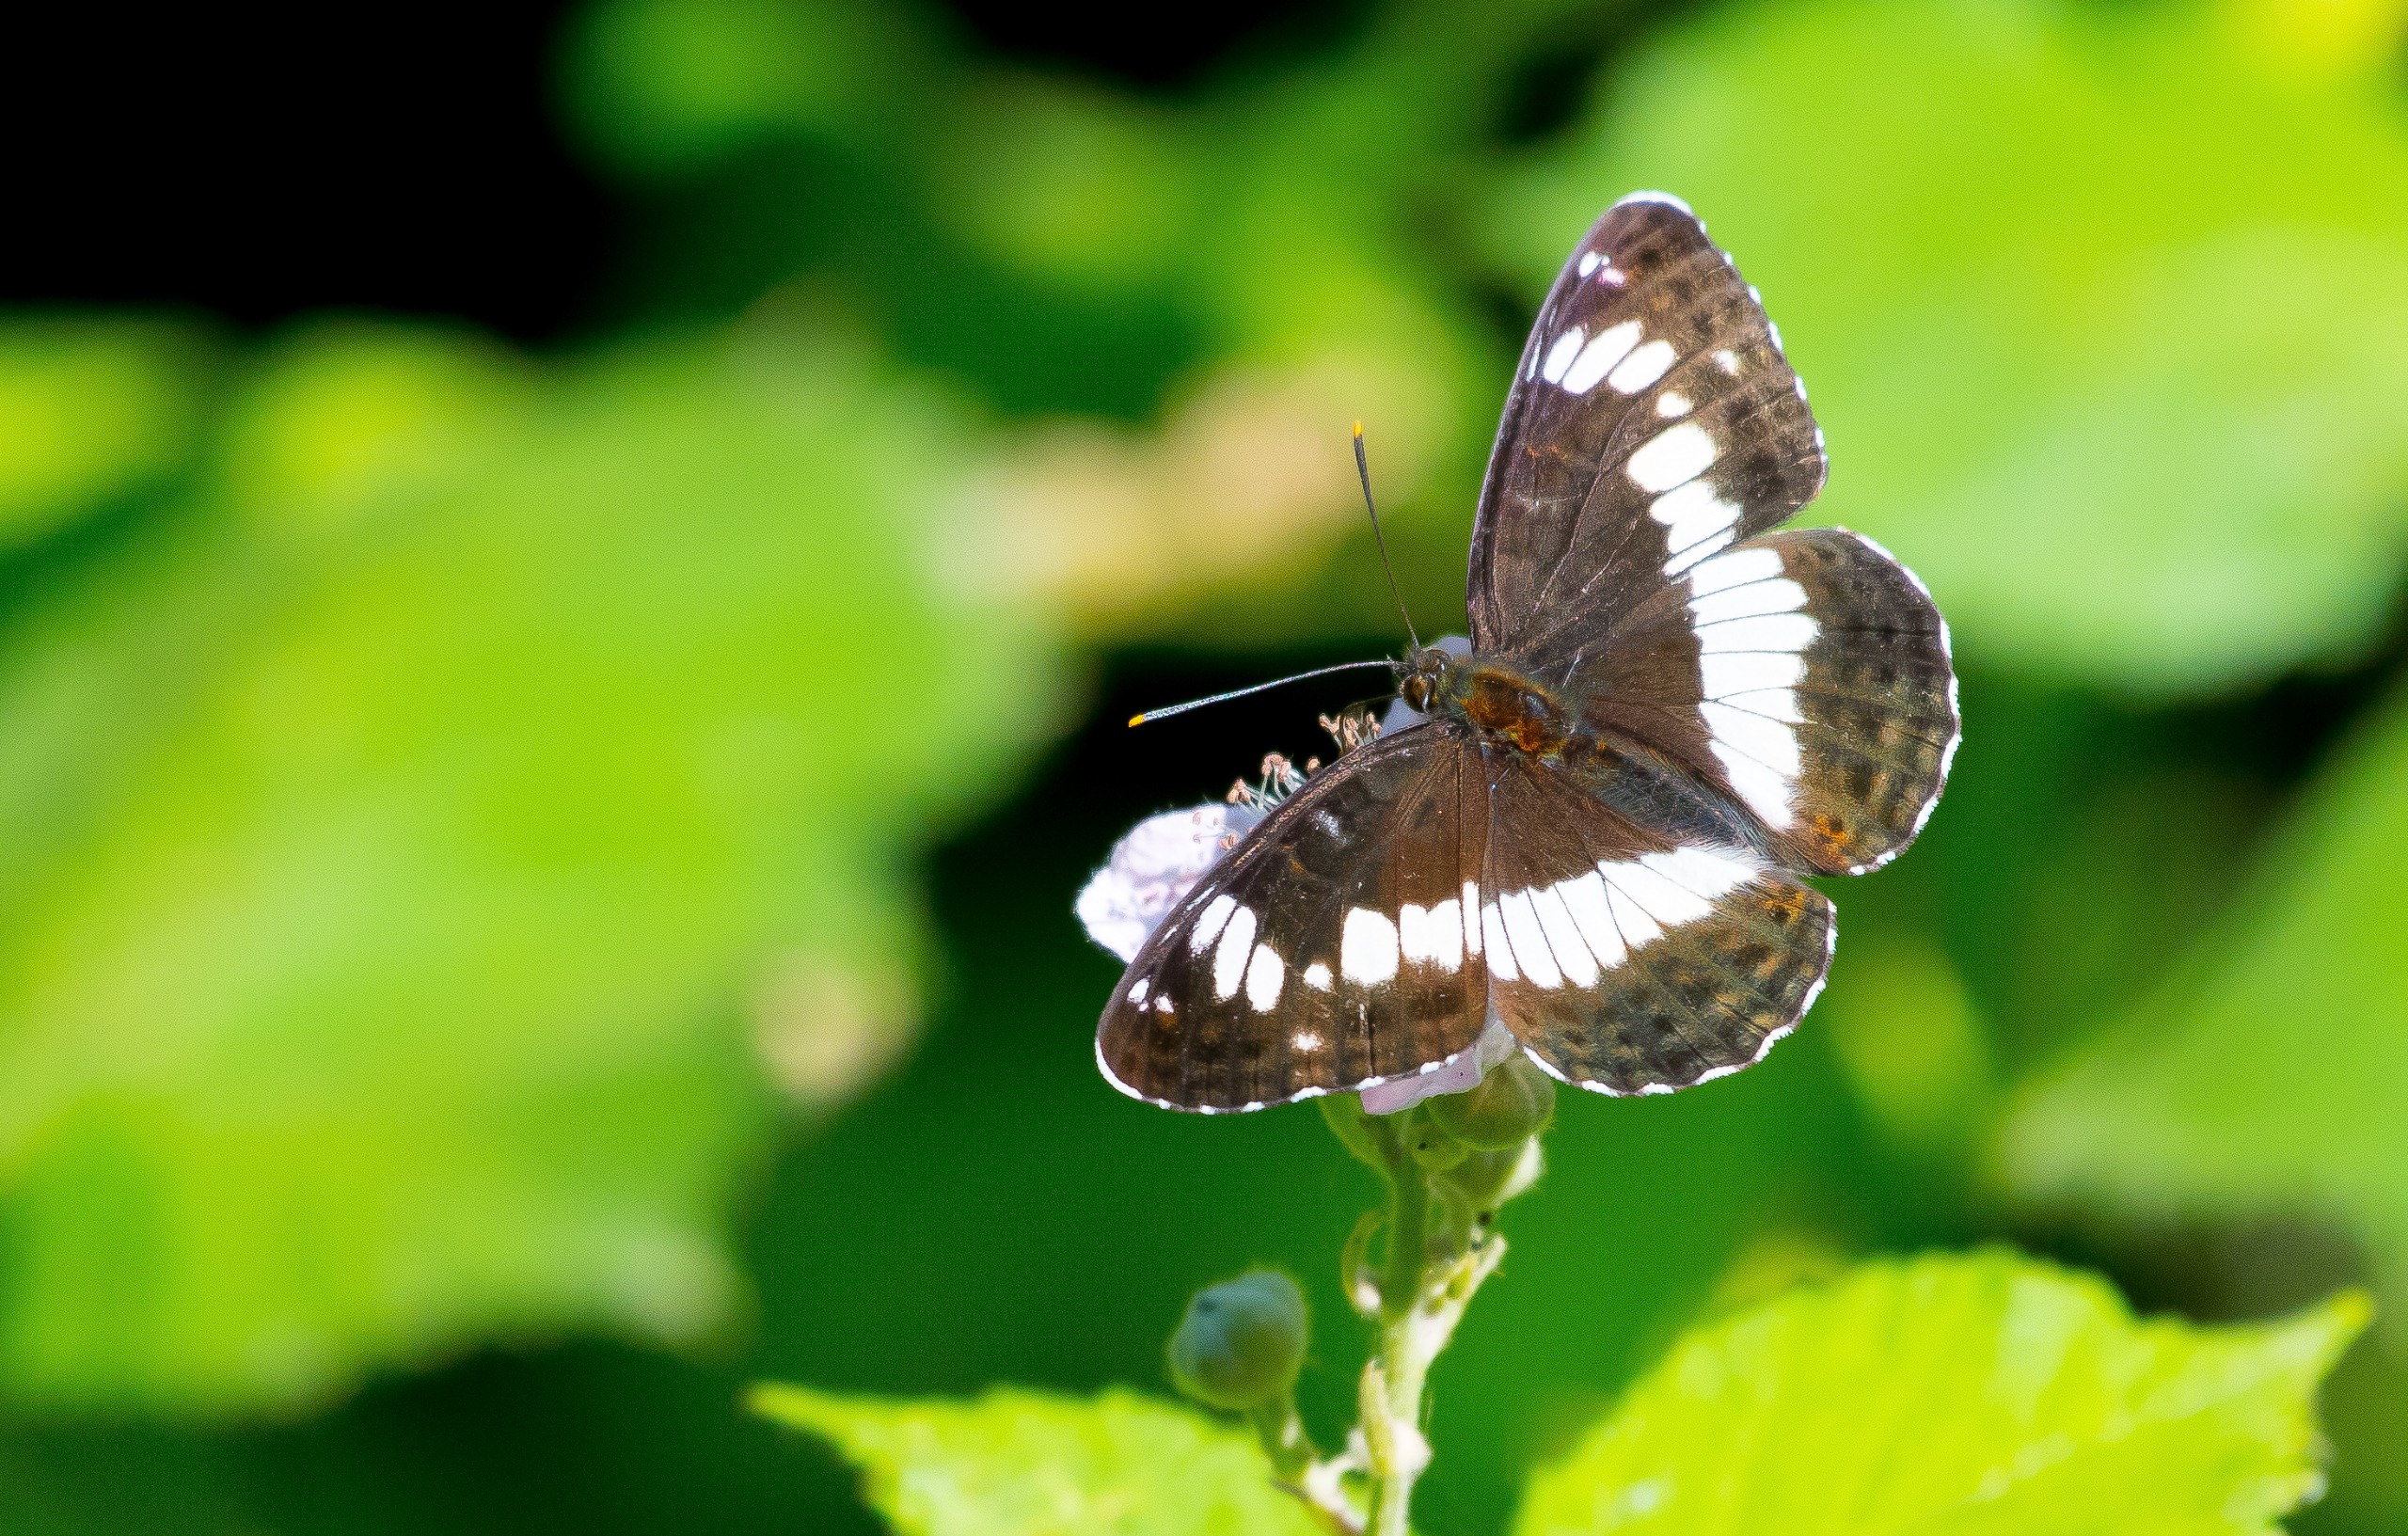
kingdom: Animalia
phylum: Arthropoda
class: Insecta
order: Lepidoptera
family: Nymphalidae
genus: Ladoga
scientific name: Ladoga camilla
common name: Hvid admiral
